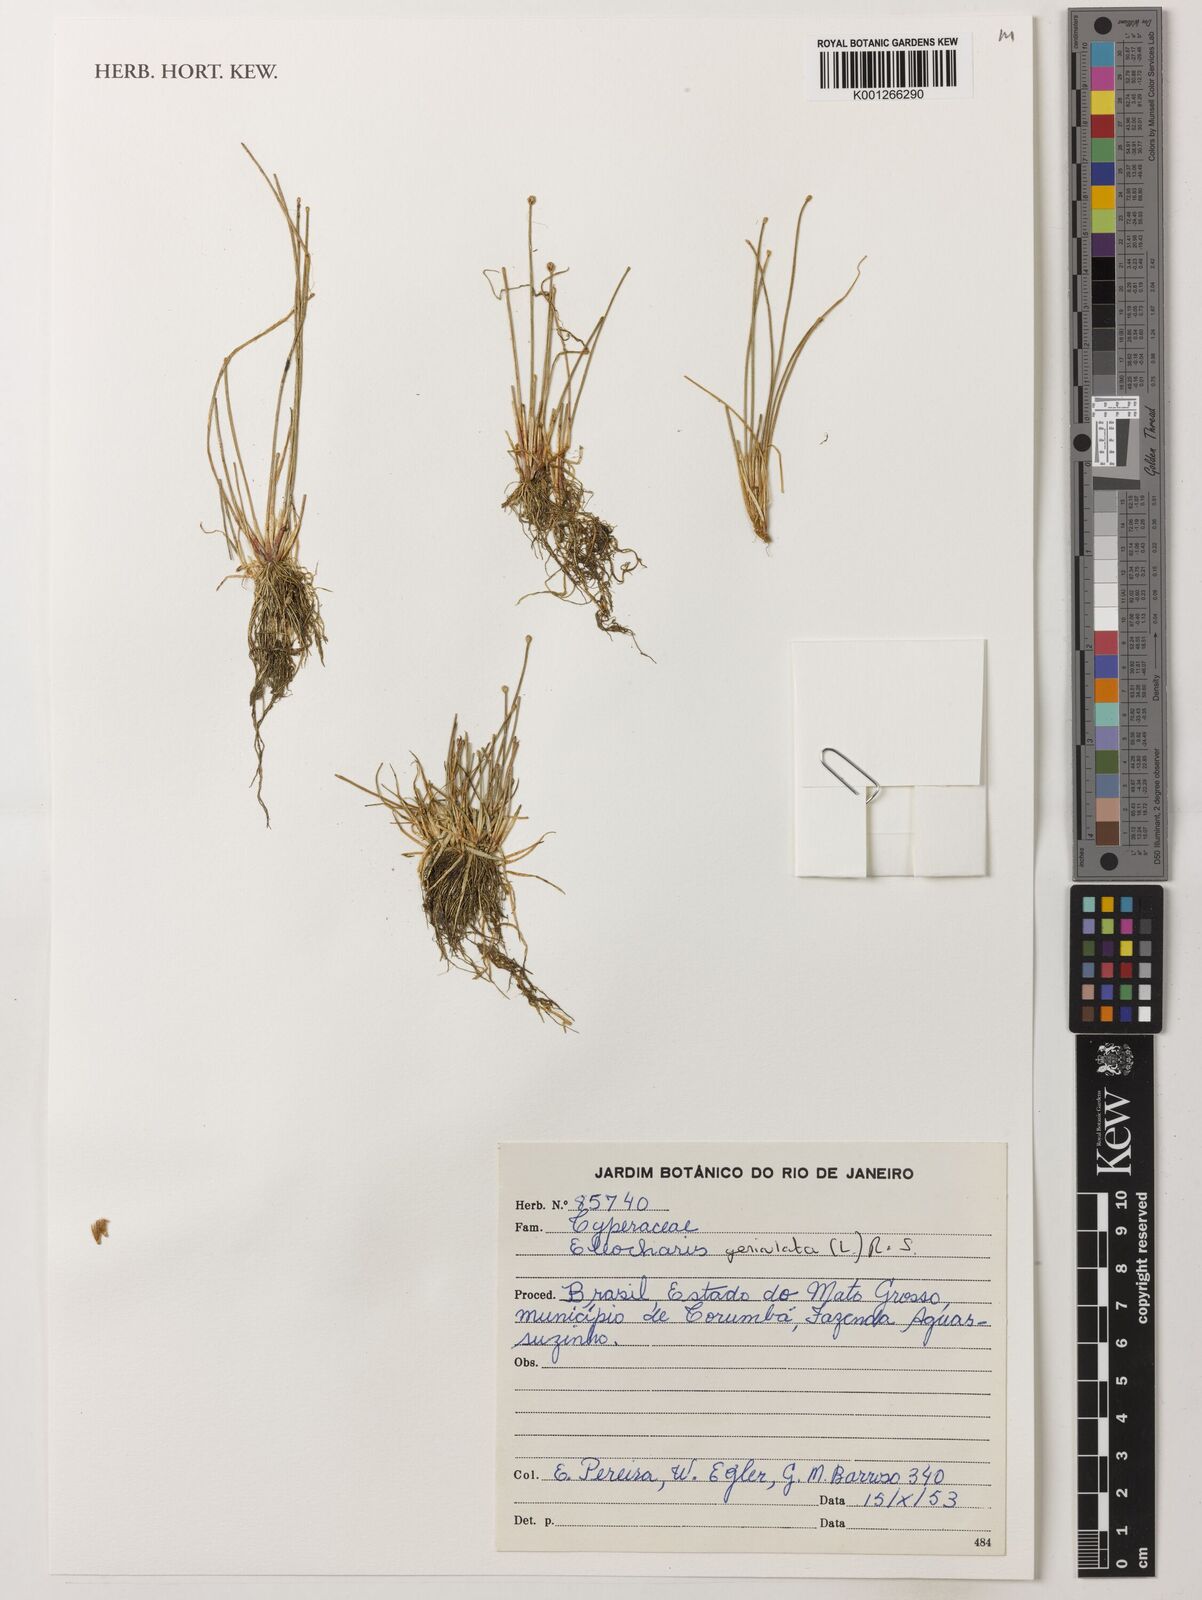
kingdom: Plantae
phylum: Tracheophyta
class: Liliopsida
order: Poales
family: Cyperaceae
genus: Eleocharis
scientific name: Eleocharis geniculata
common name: Canada spikesedge
